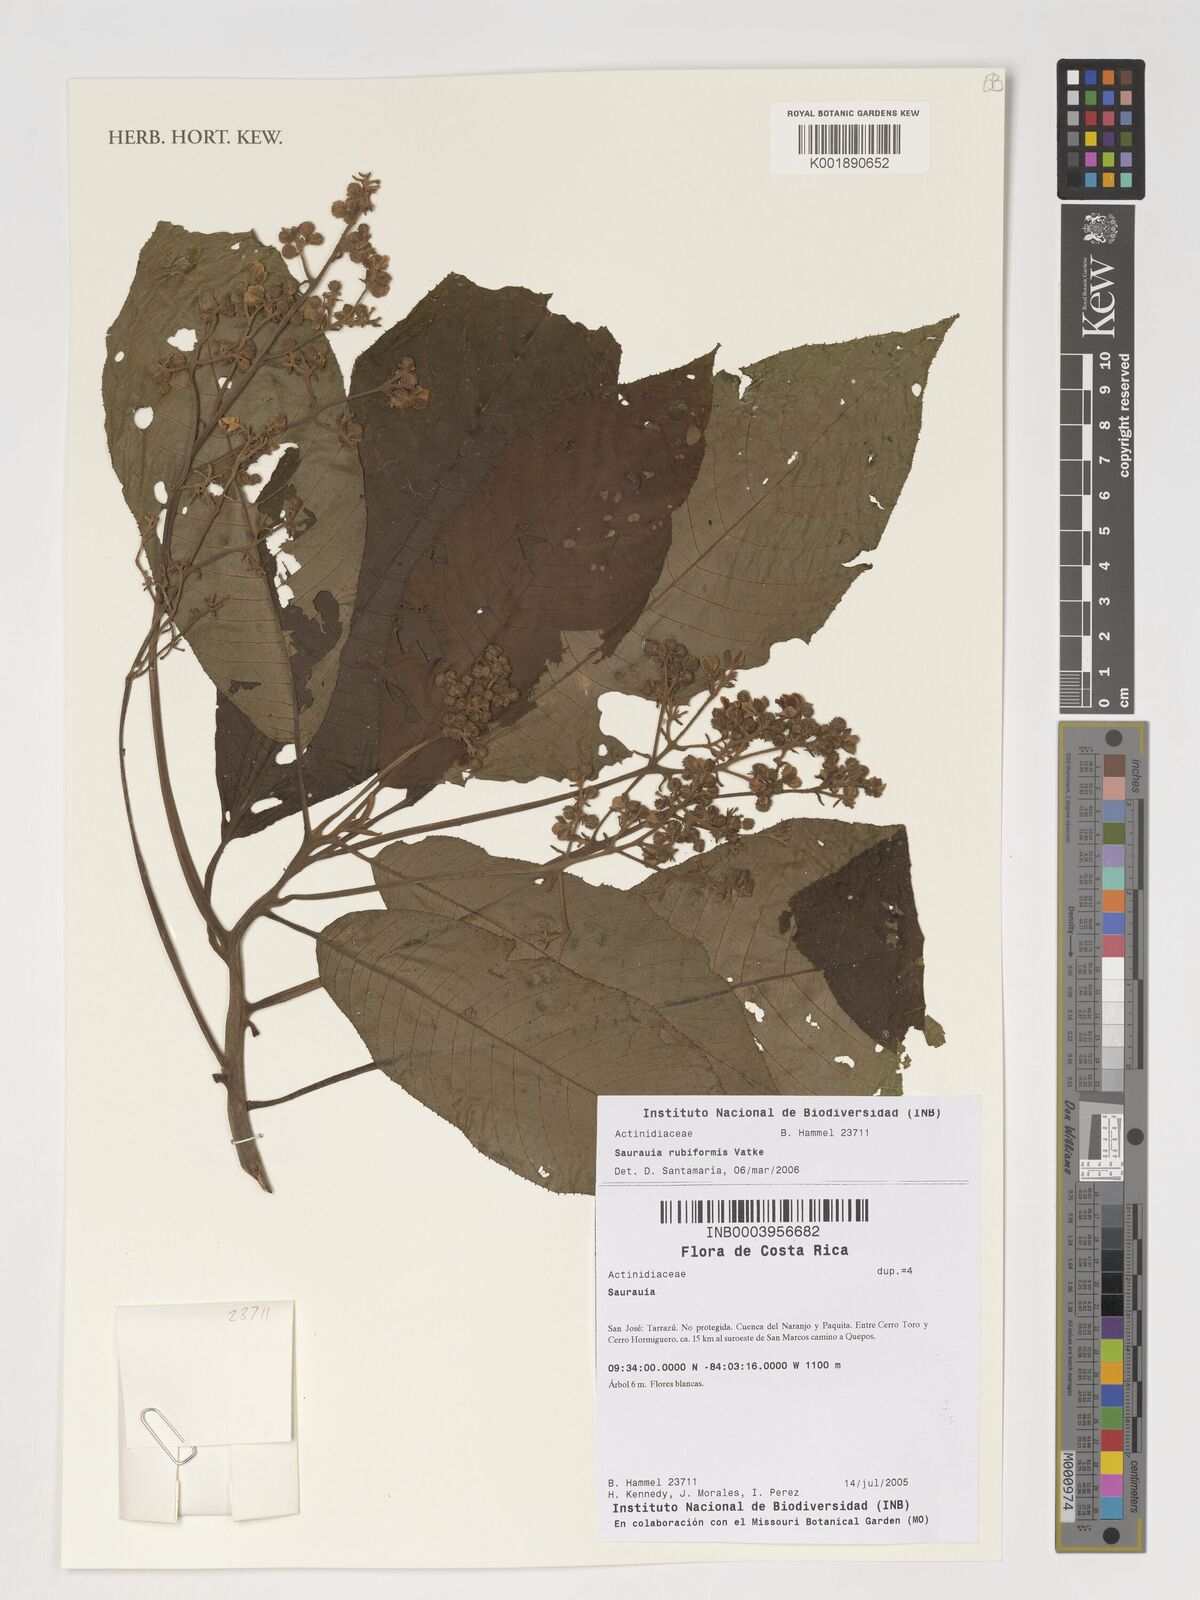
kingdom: Plantae
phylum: Tracheophyta
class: Magnoliopsida
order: Ericales
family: Actinidiaceae
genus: Saurauia
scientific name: Saurauia rubiformis
